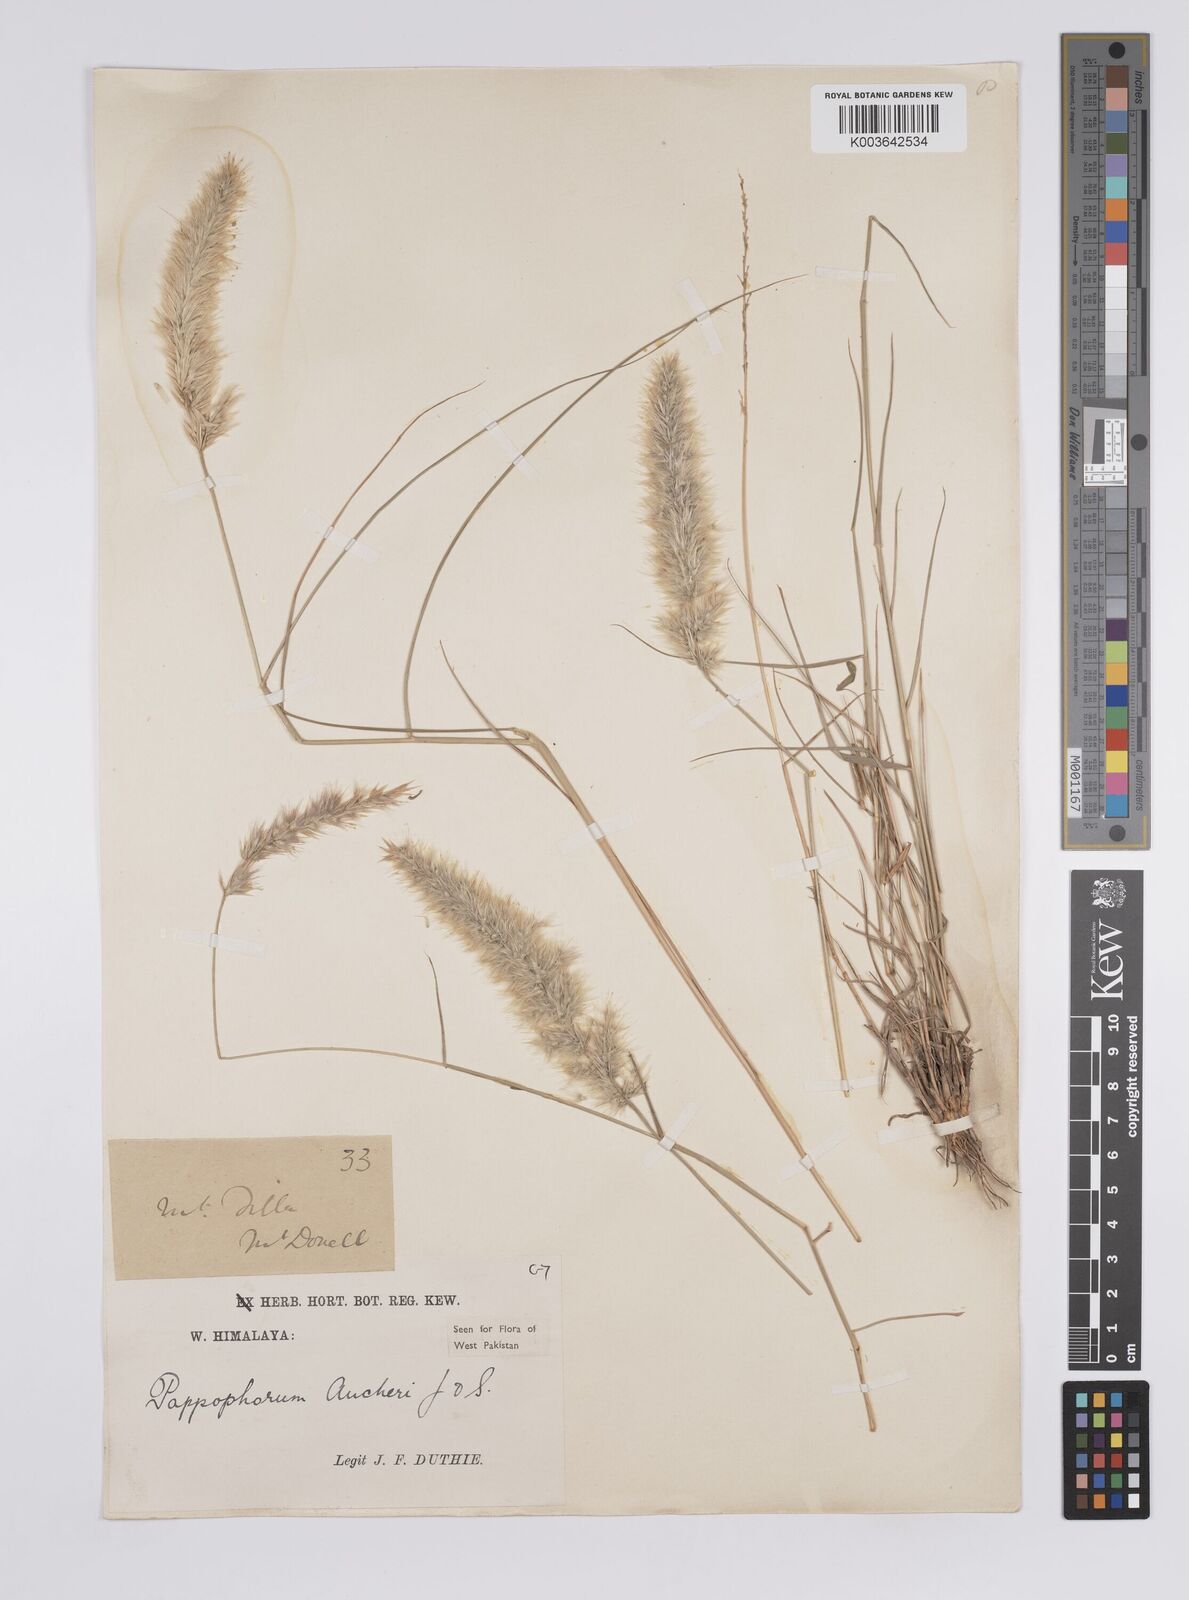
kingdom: Plantae
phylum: Tracheophyta
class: Liliopsida
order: Poales
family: Poaceae
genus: Enneapogon
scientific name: Enneapogon persicus
